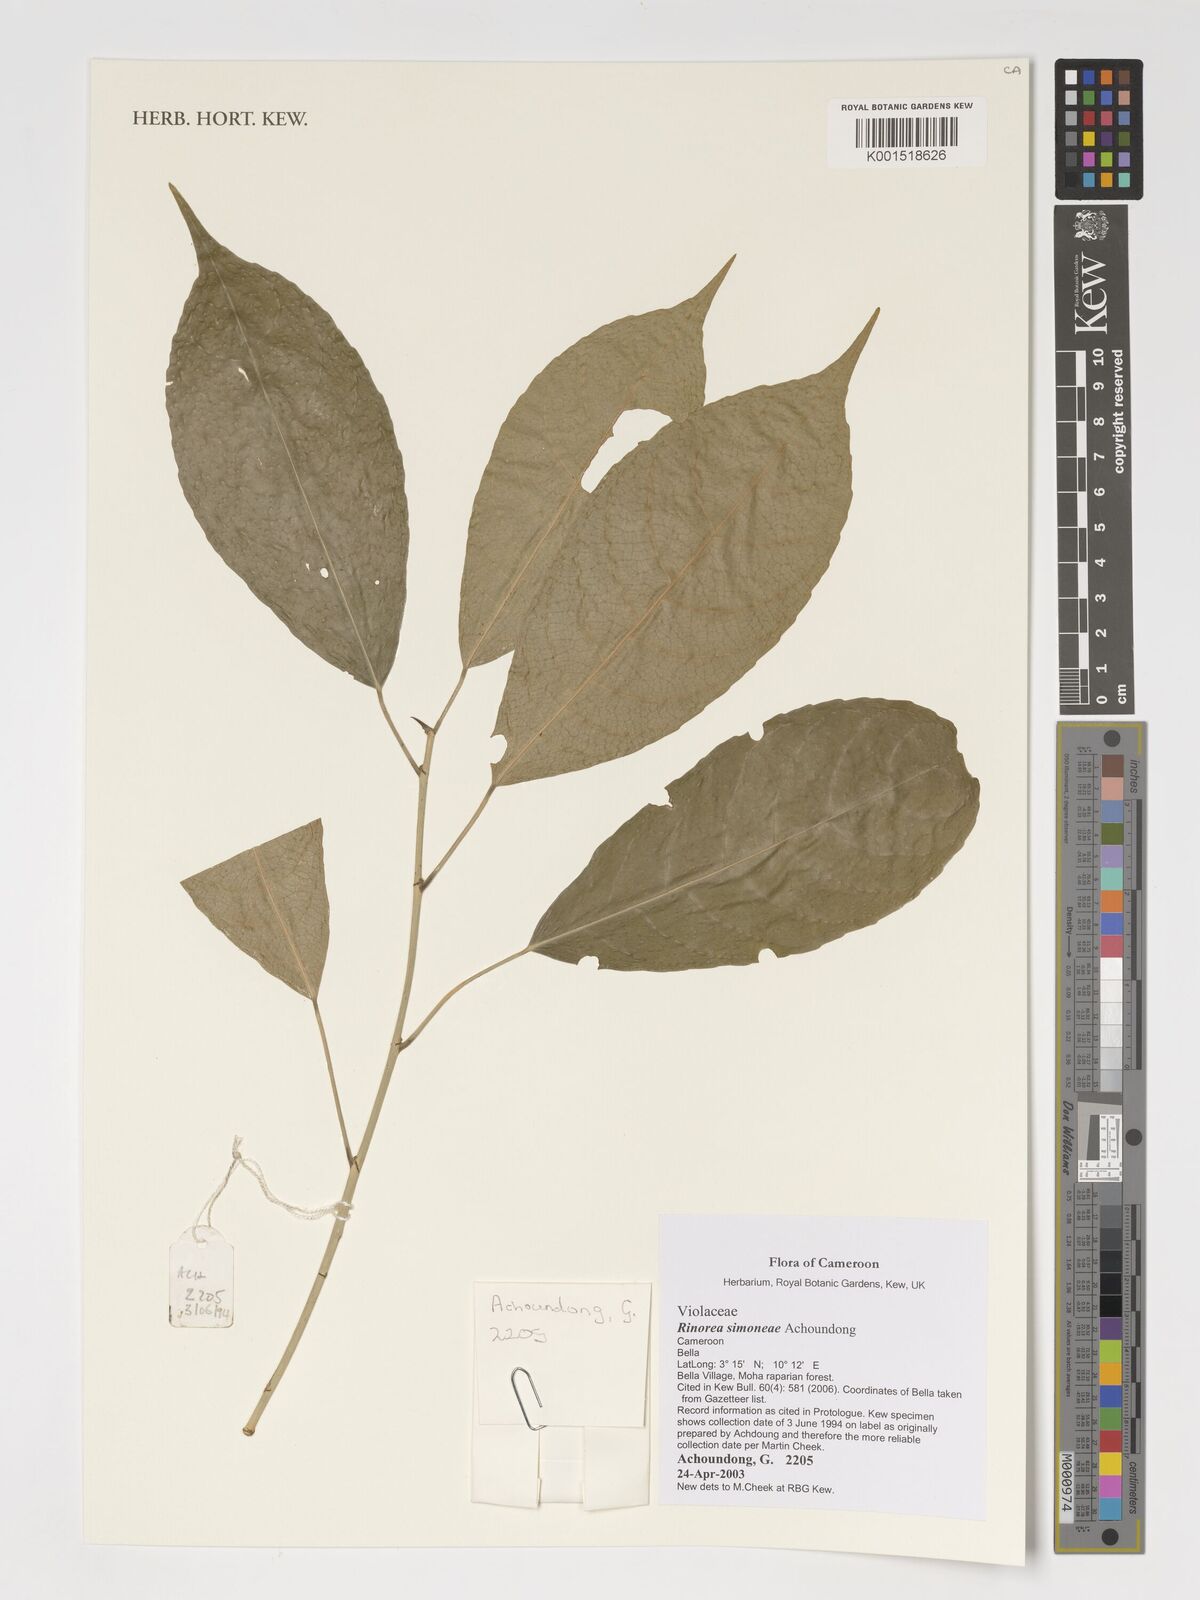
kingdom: Plantae
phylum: Tracheophyta
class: Magnoliopsida
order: Malpighiales
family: Violaceae
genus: Rinorea
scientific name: Rinorea simoneae
